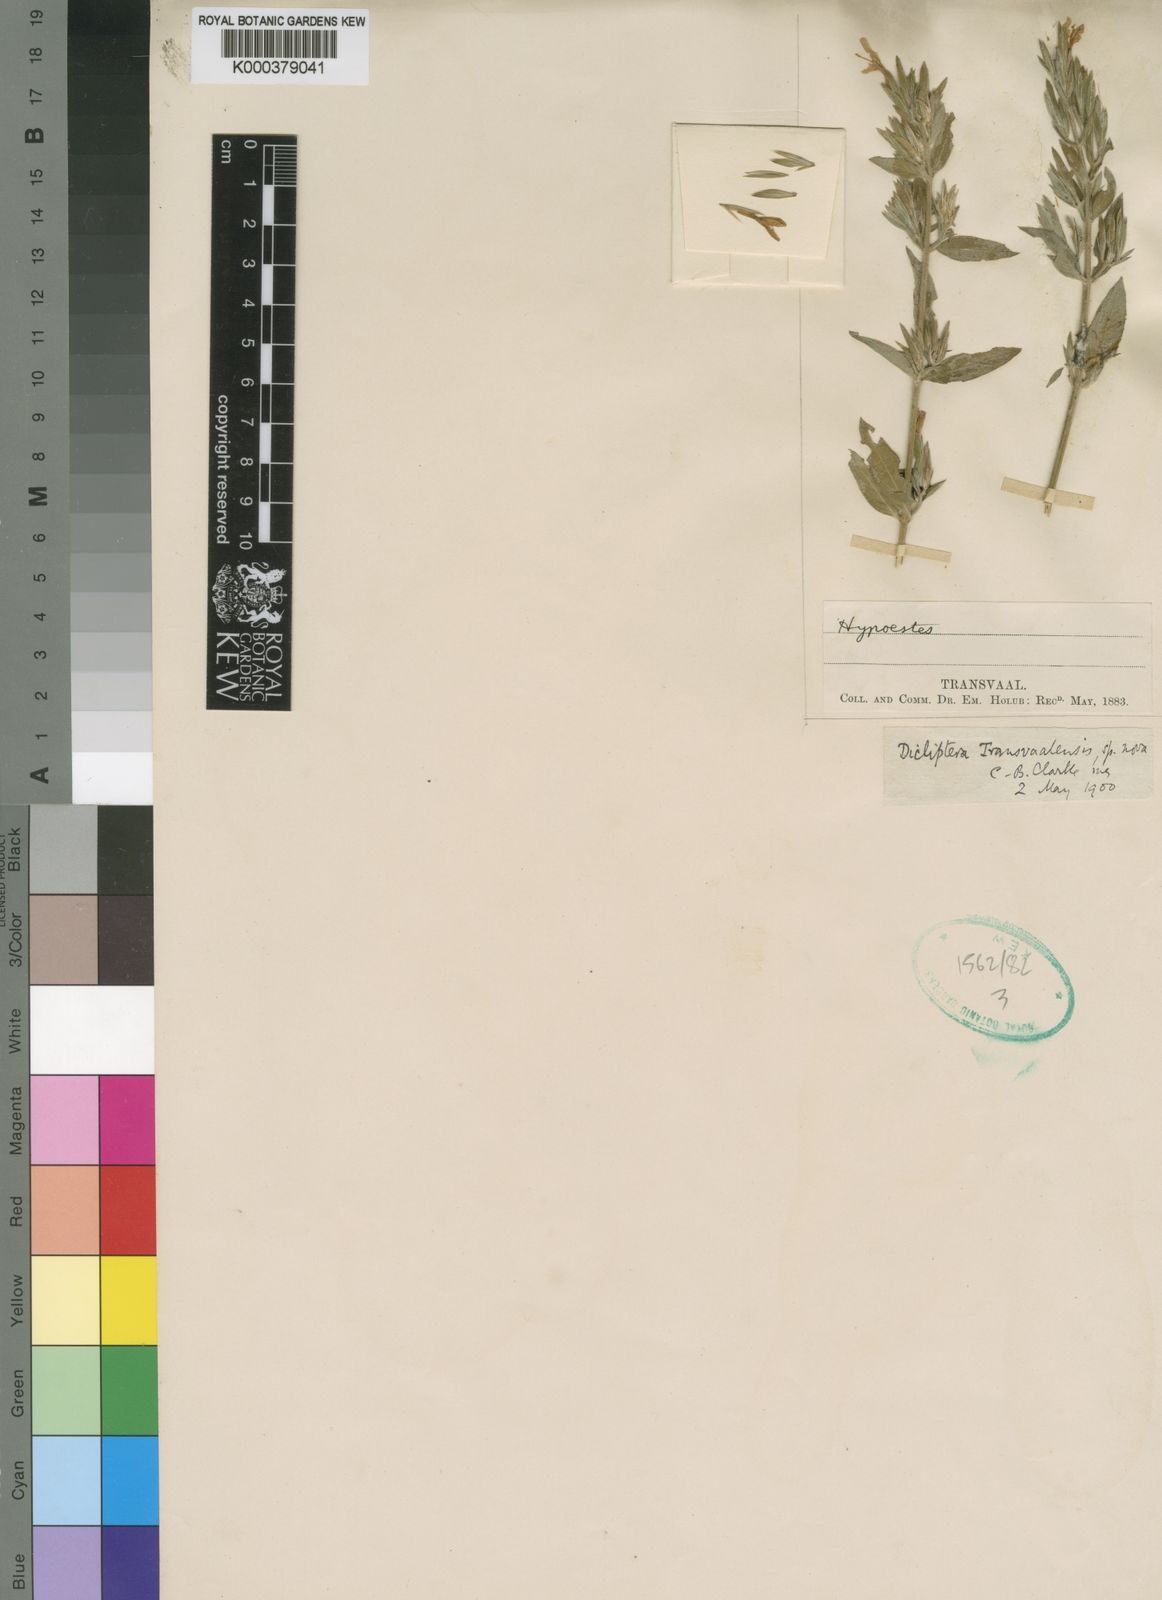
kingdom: Plantae
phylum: Tracheophyta
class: Magnoliopsida
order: Lamiales
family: Acanthaceae
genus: Dicliptera
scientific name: Dicliptera transvaalensis
